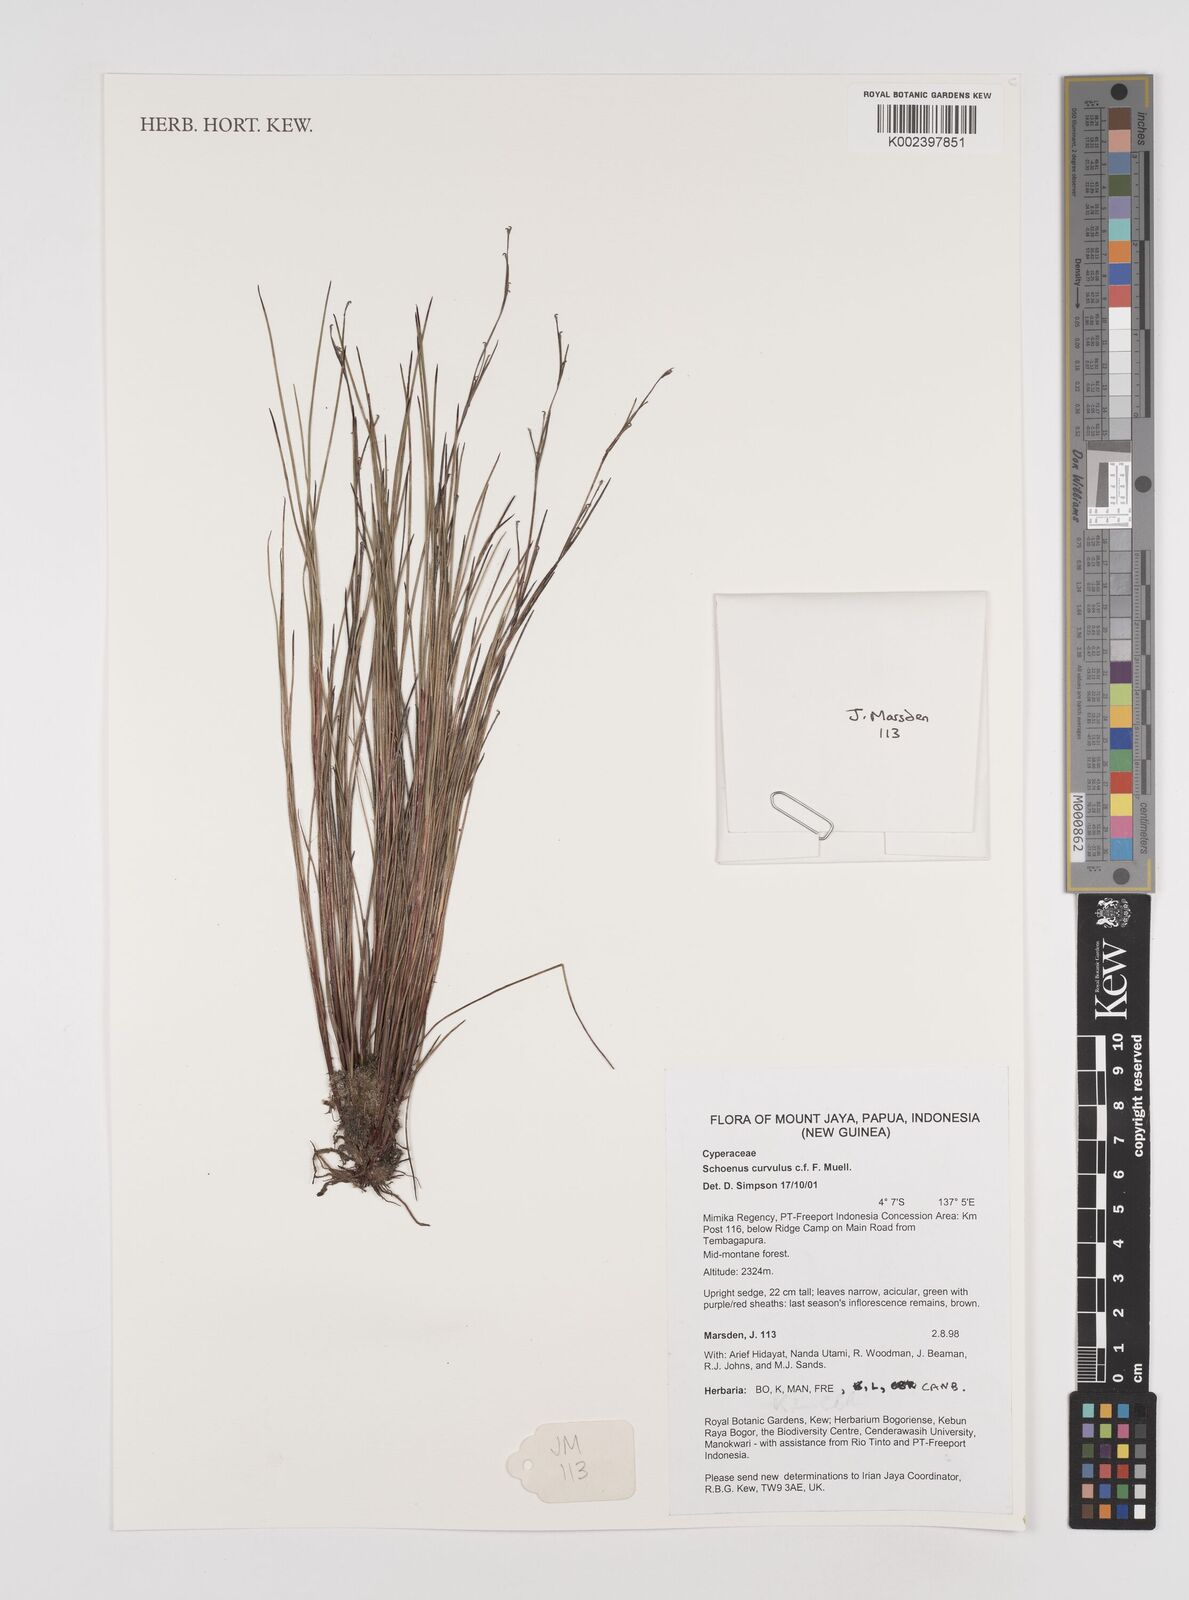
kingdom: Plantae
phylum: Tracheophyta
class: Liliopsida
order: Poales
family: Cyperaceae
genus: Schoenus
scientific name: Schoenus curvulus
